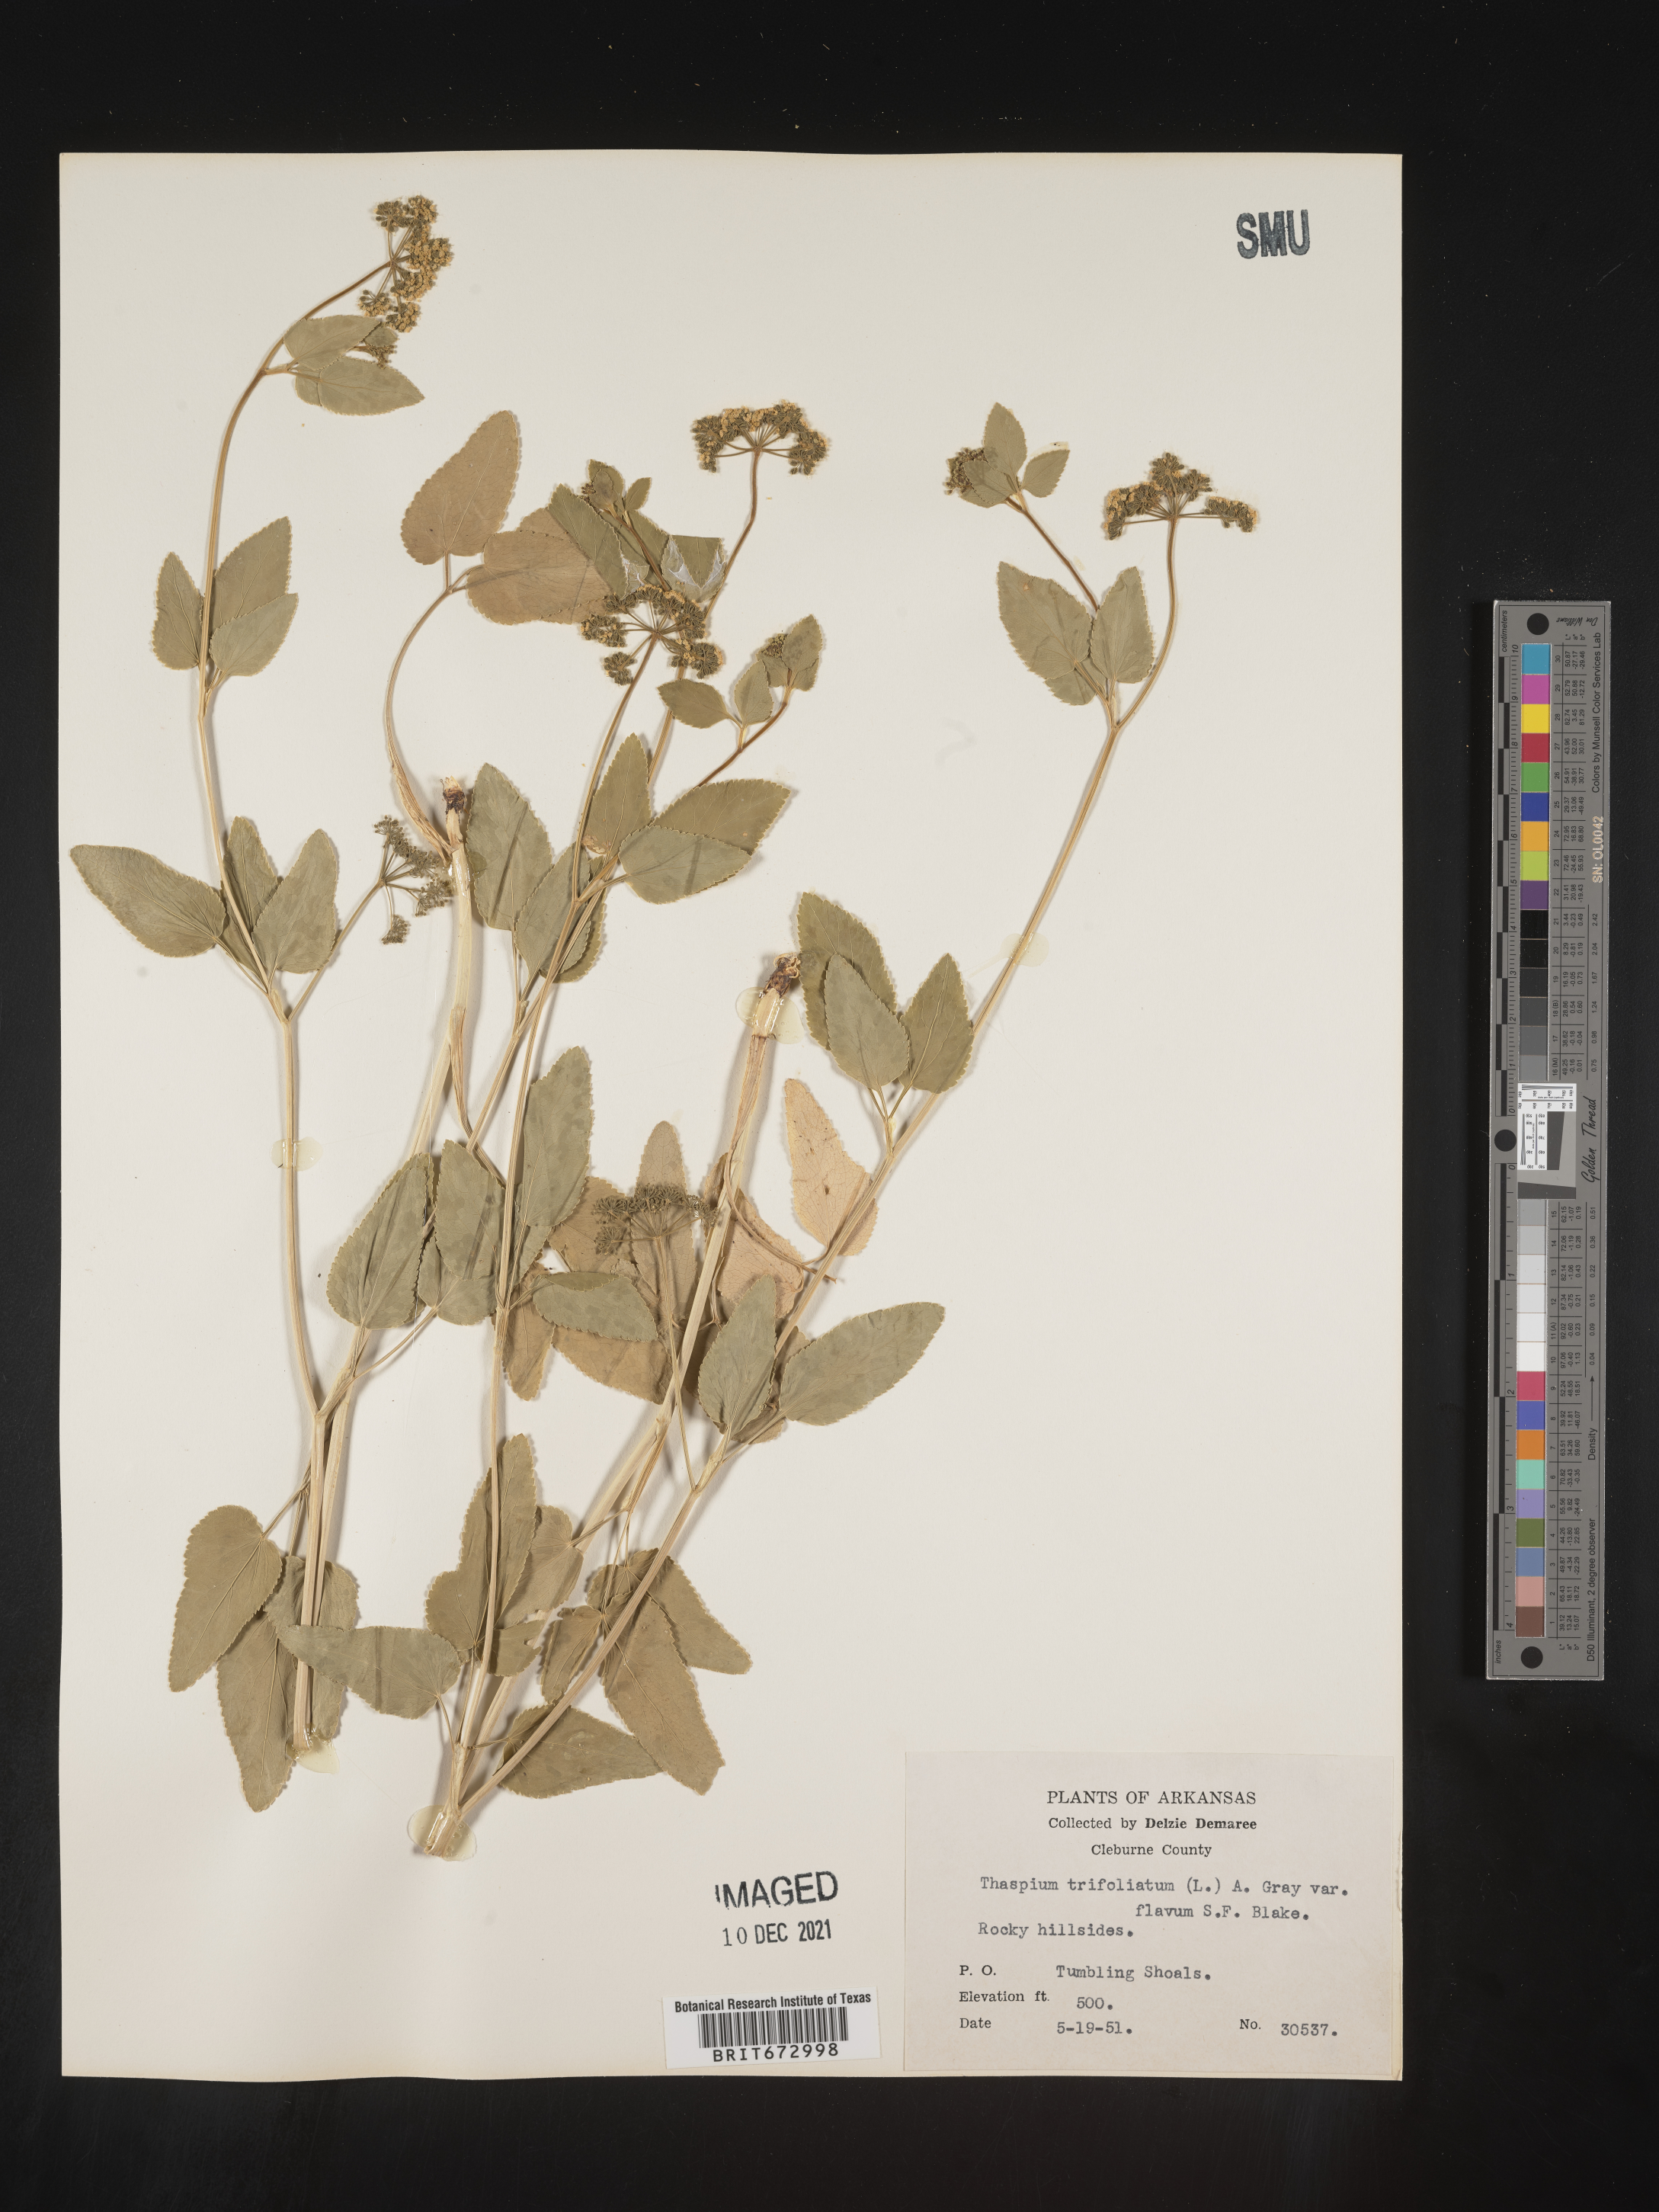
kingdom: Plantae
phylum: Tracheophyta
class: Magnoliopsida
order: Apiales
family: Apiaceae
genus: Thaspium
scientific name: Thaspium
